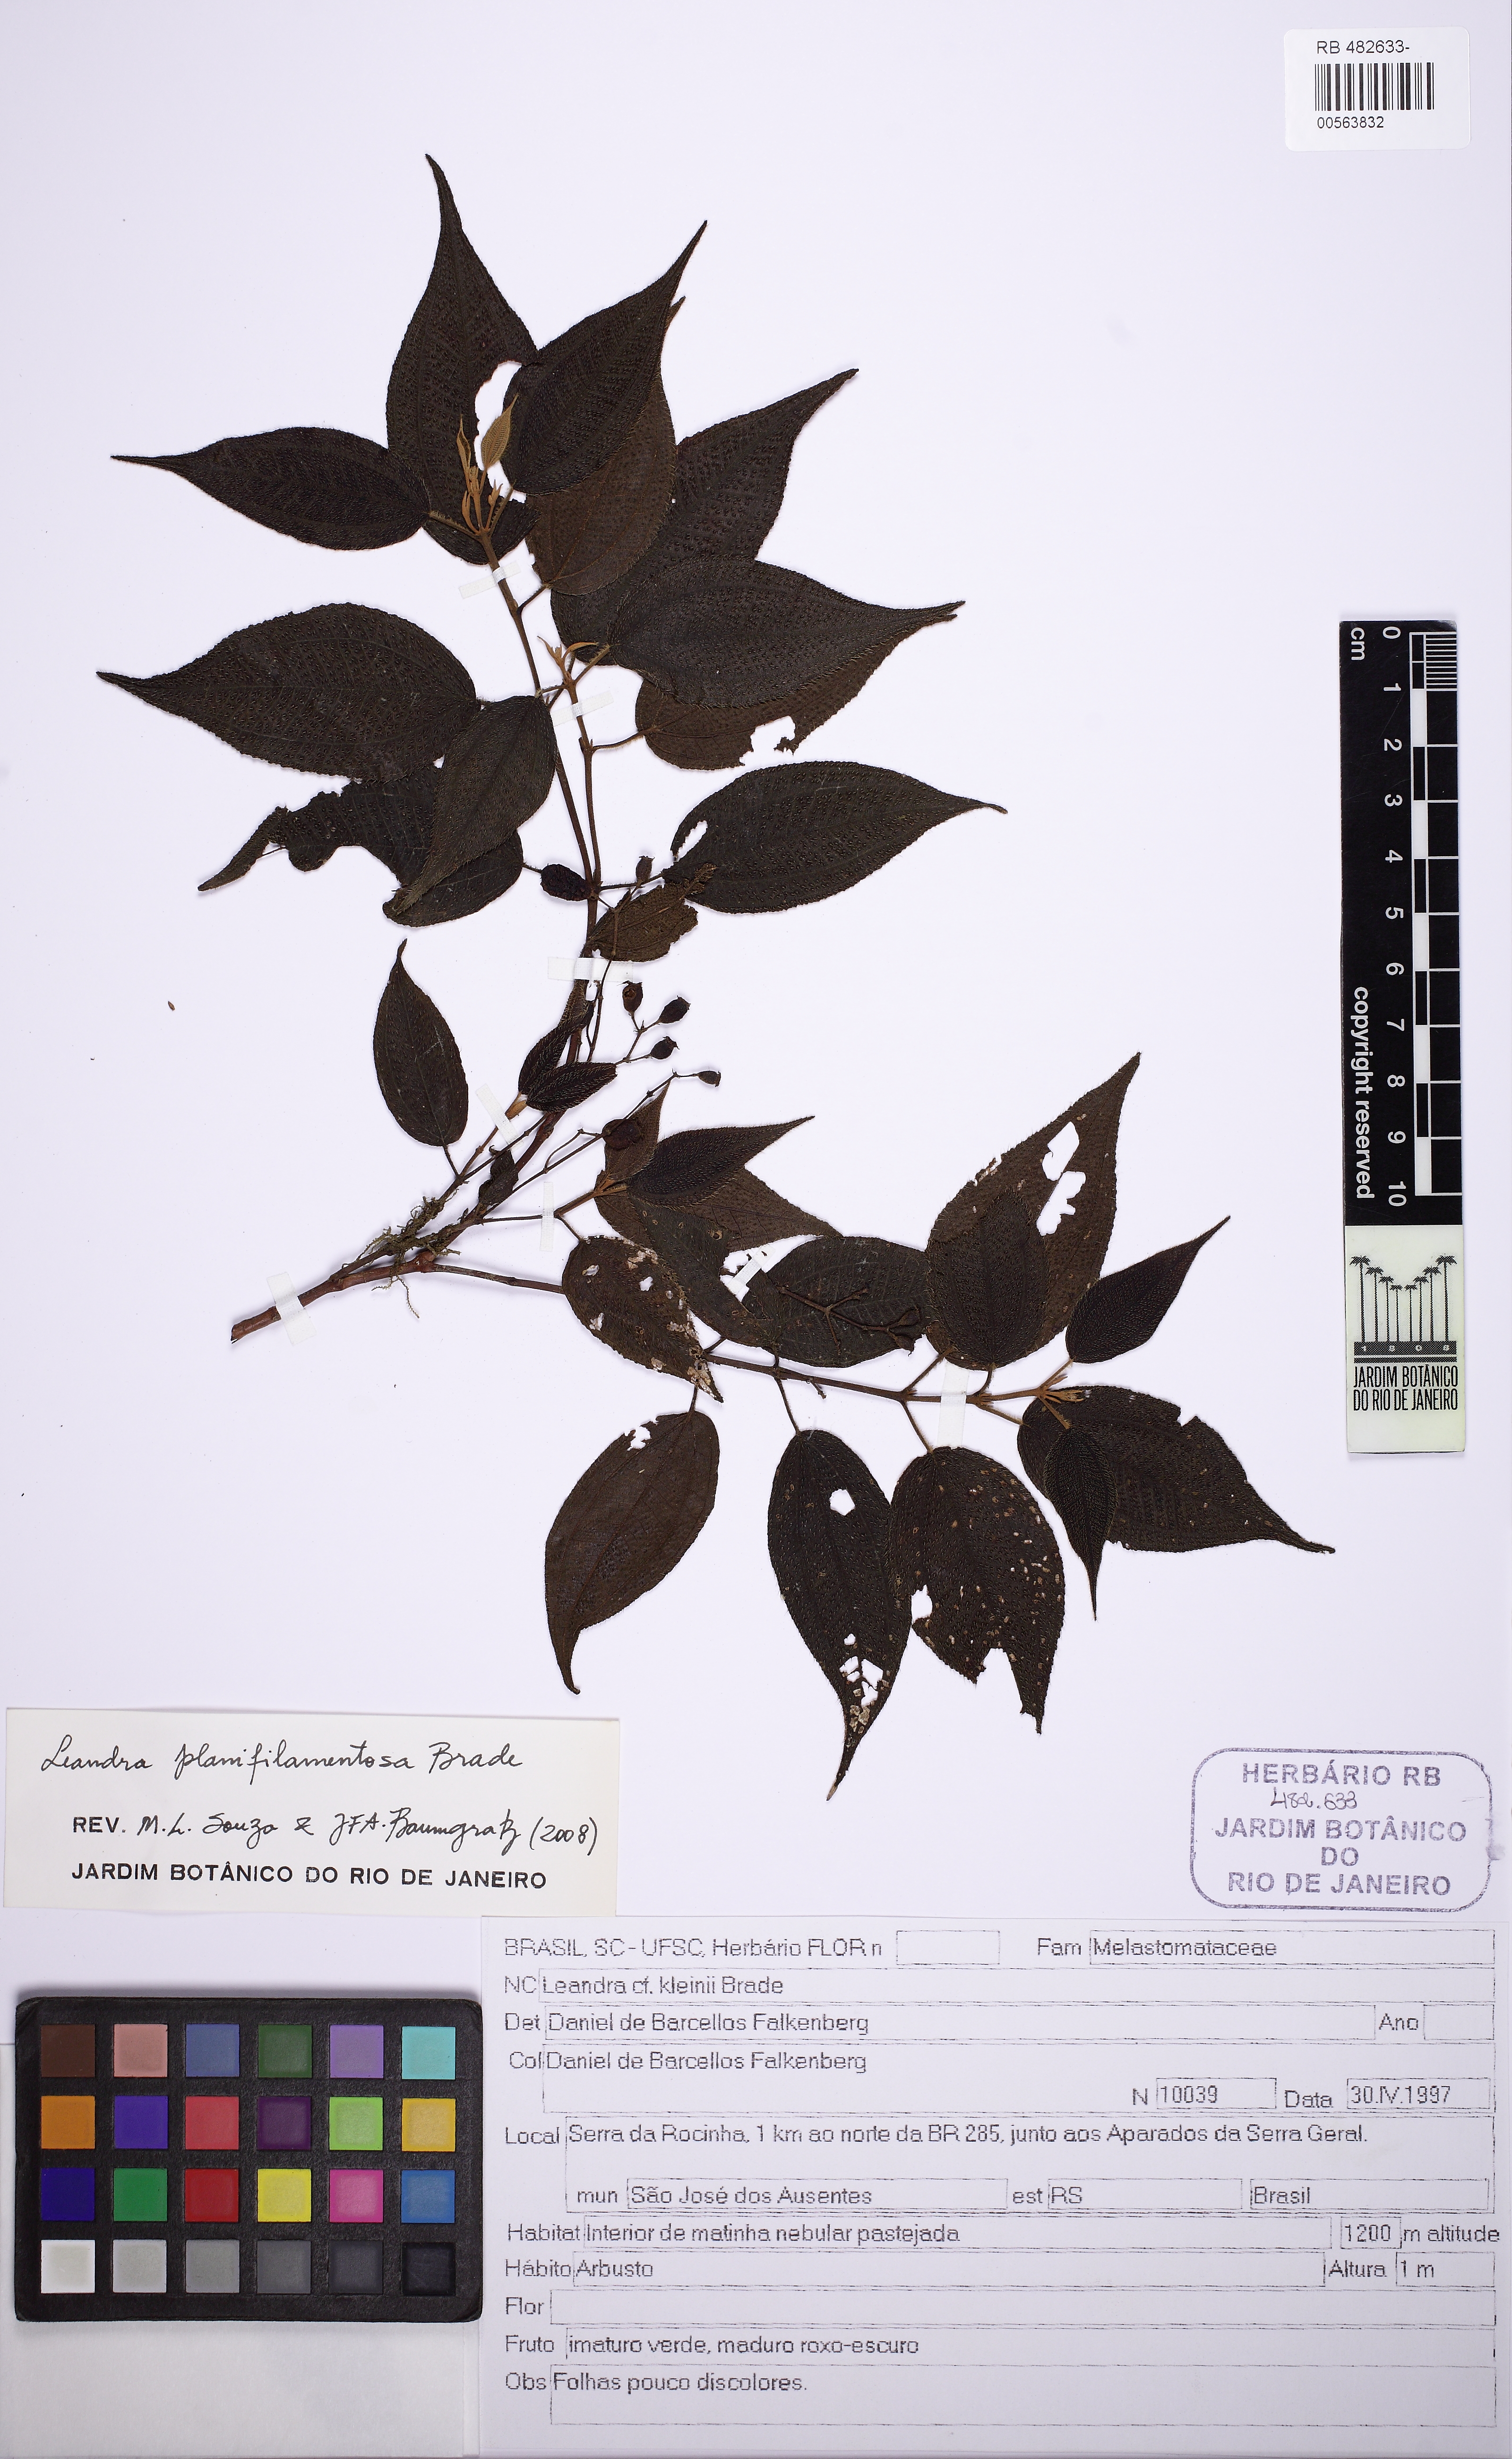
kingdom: Plantae
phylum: Tracheophyta
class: Magnoliopsida
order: Myrtales
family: Melastomataceae
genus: Miconia
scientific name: Miconia
